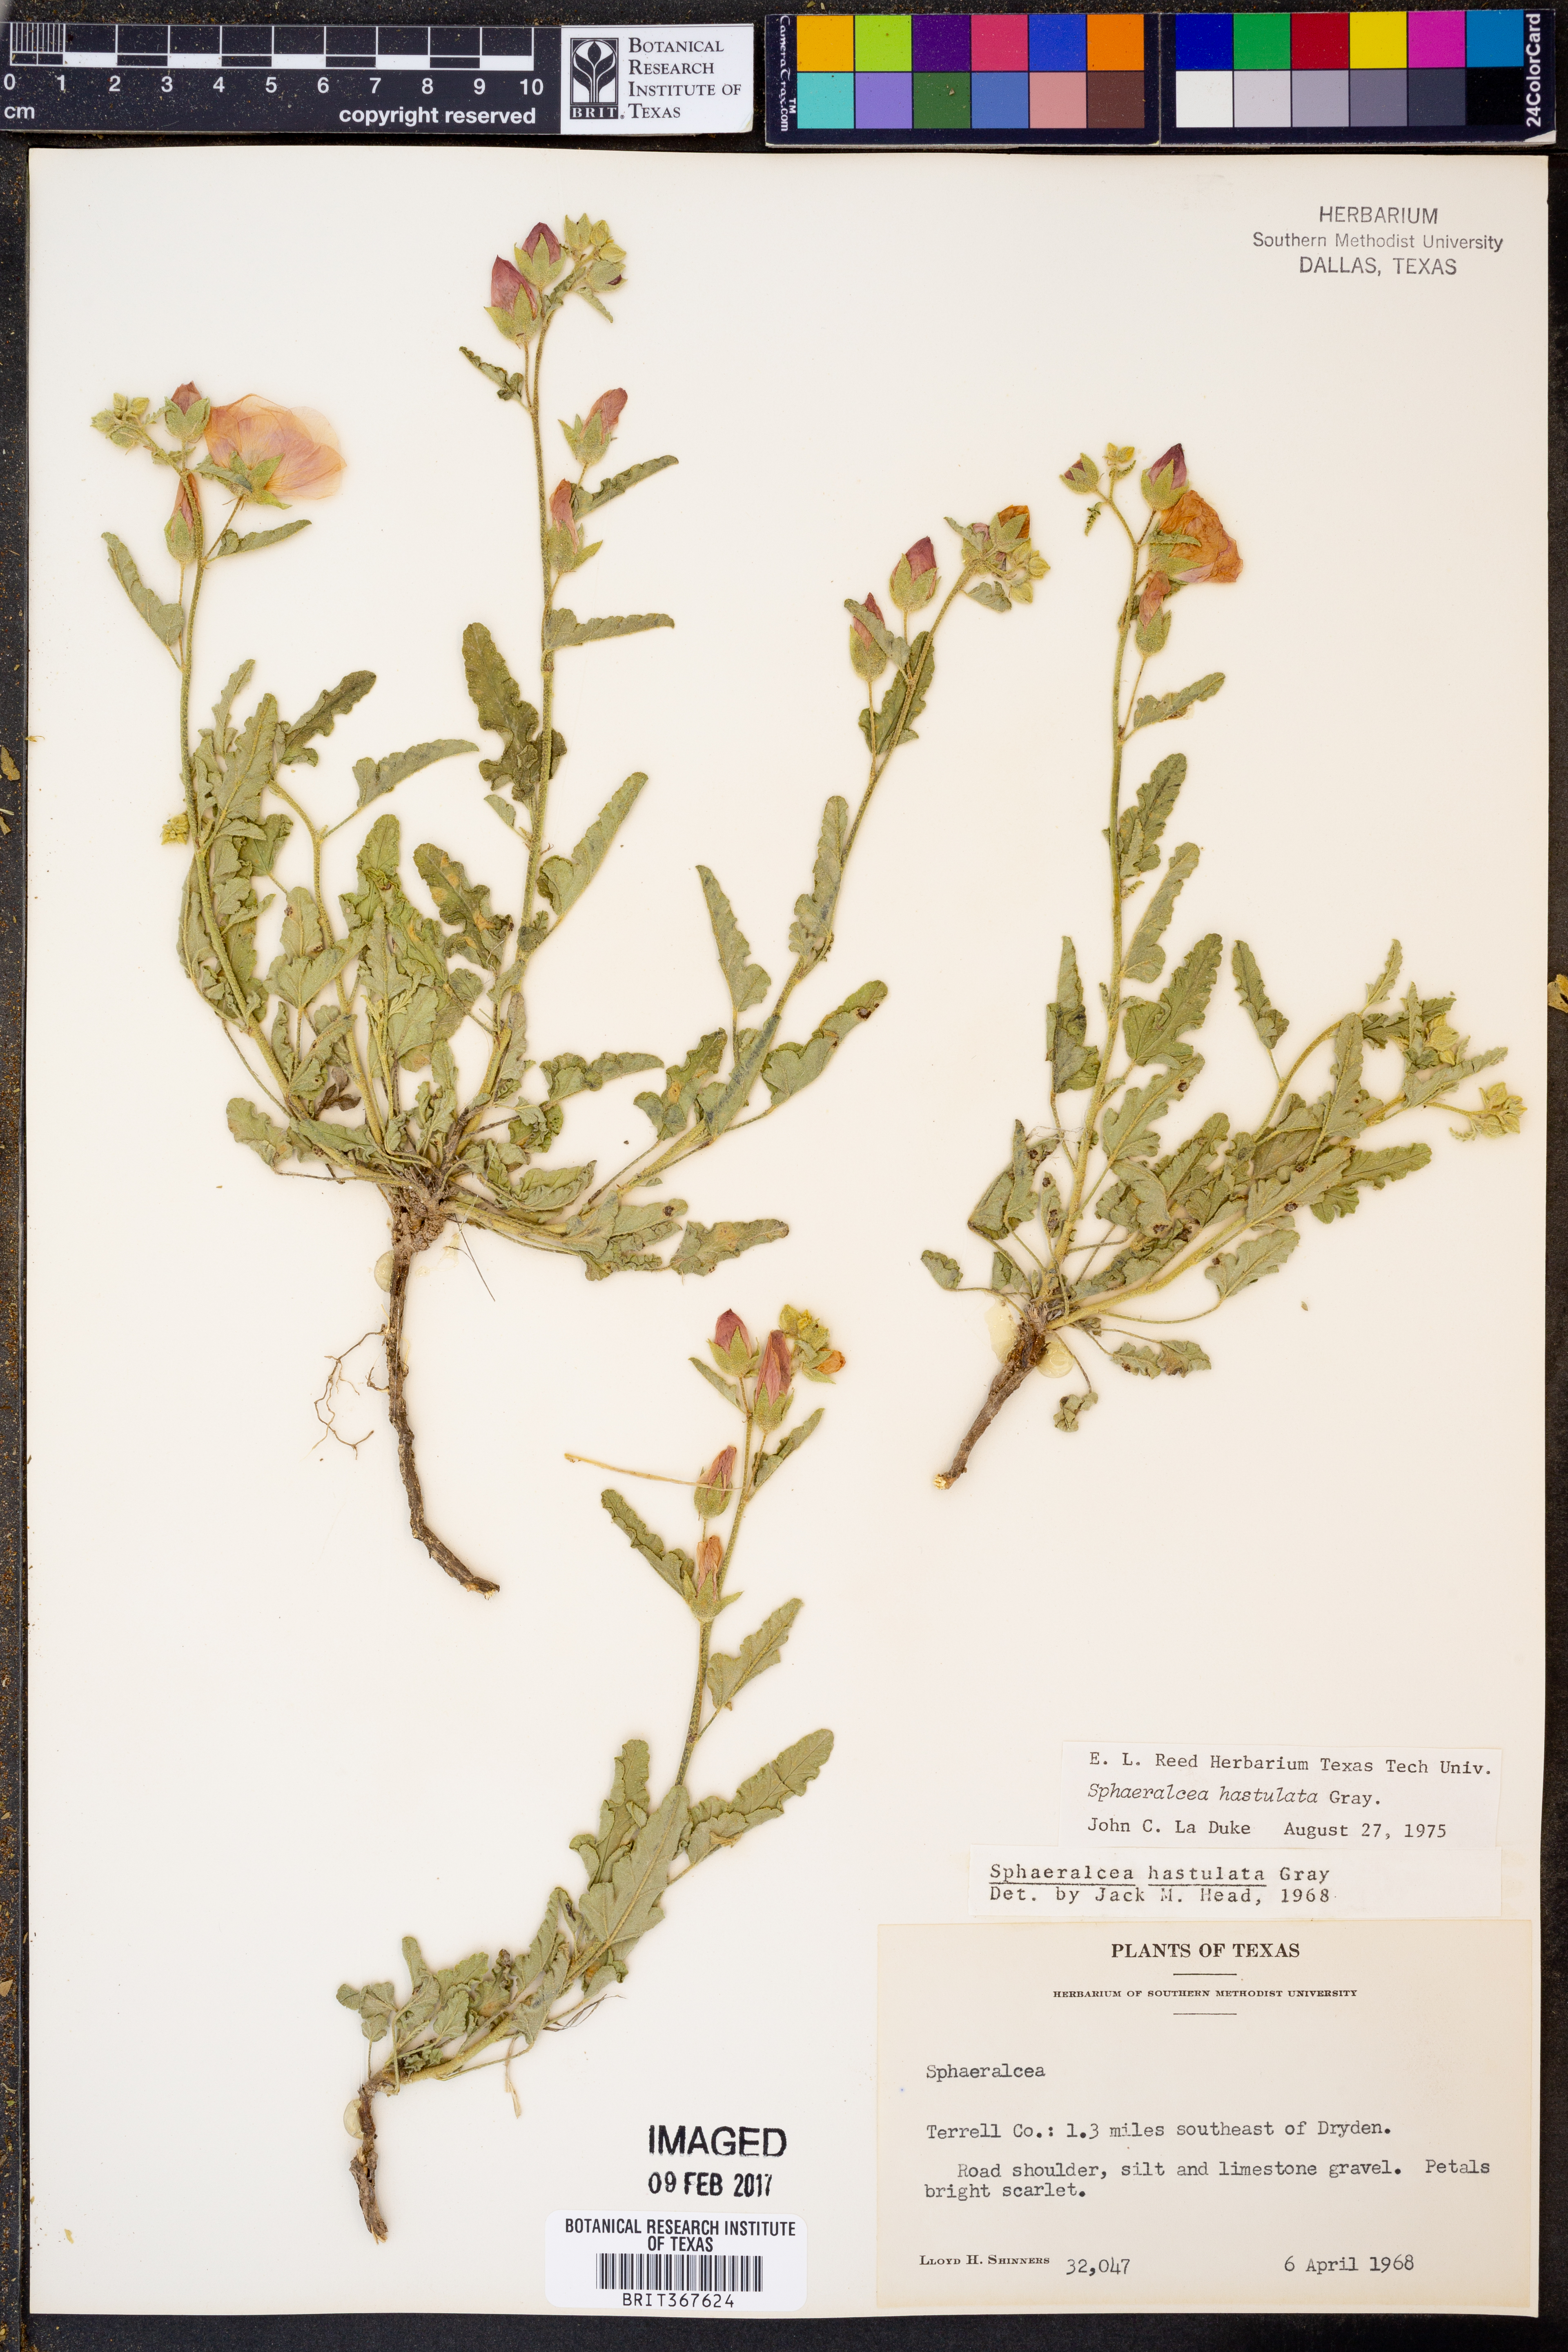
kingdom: Plantae
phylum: Tracheophyta
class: Magnoliopsida
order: Malvales
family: Malvaceae
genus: Sphaeralcea
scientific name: Sphaeralcea hastulata
